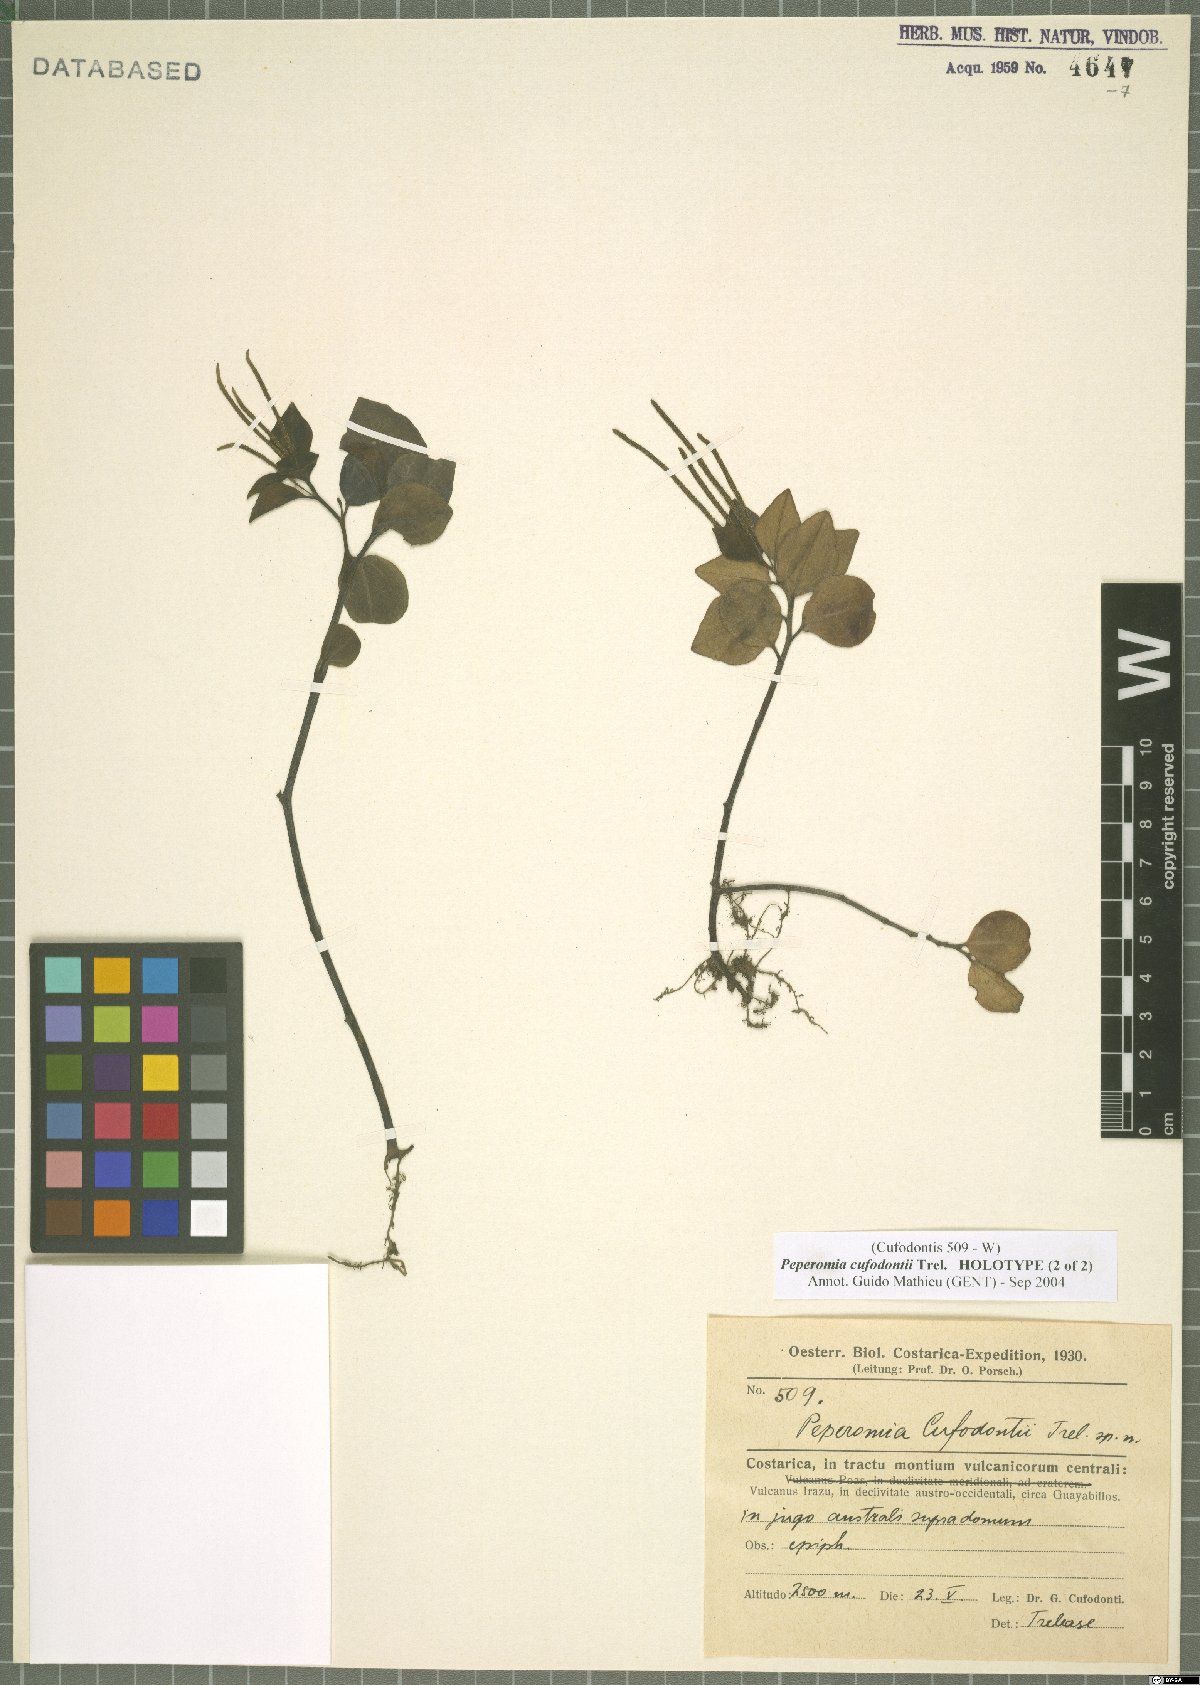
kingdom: Plantae
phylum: Tracheophyta
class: Magnoliopsida
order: Piperales
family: Piperaceae
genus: Peperomia
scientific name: Peperomia hylophila
